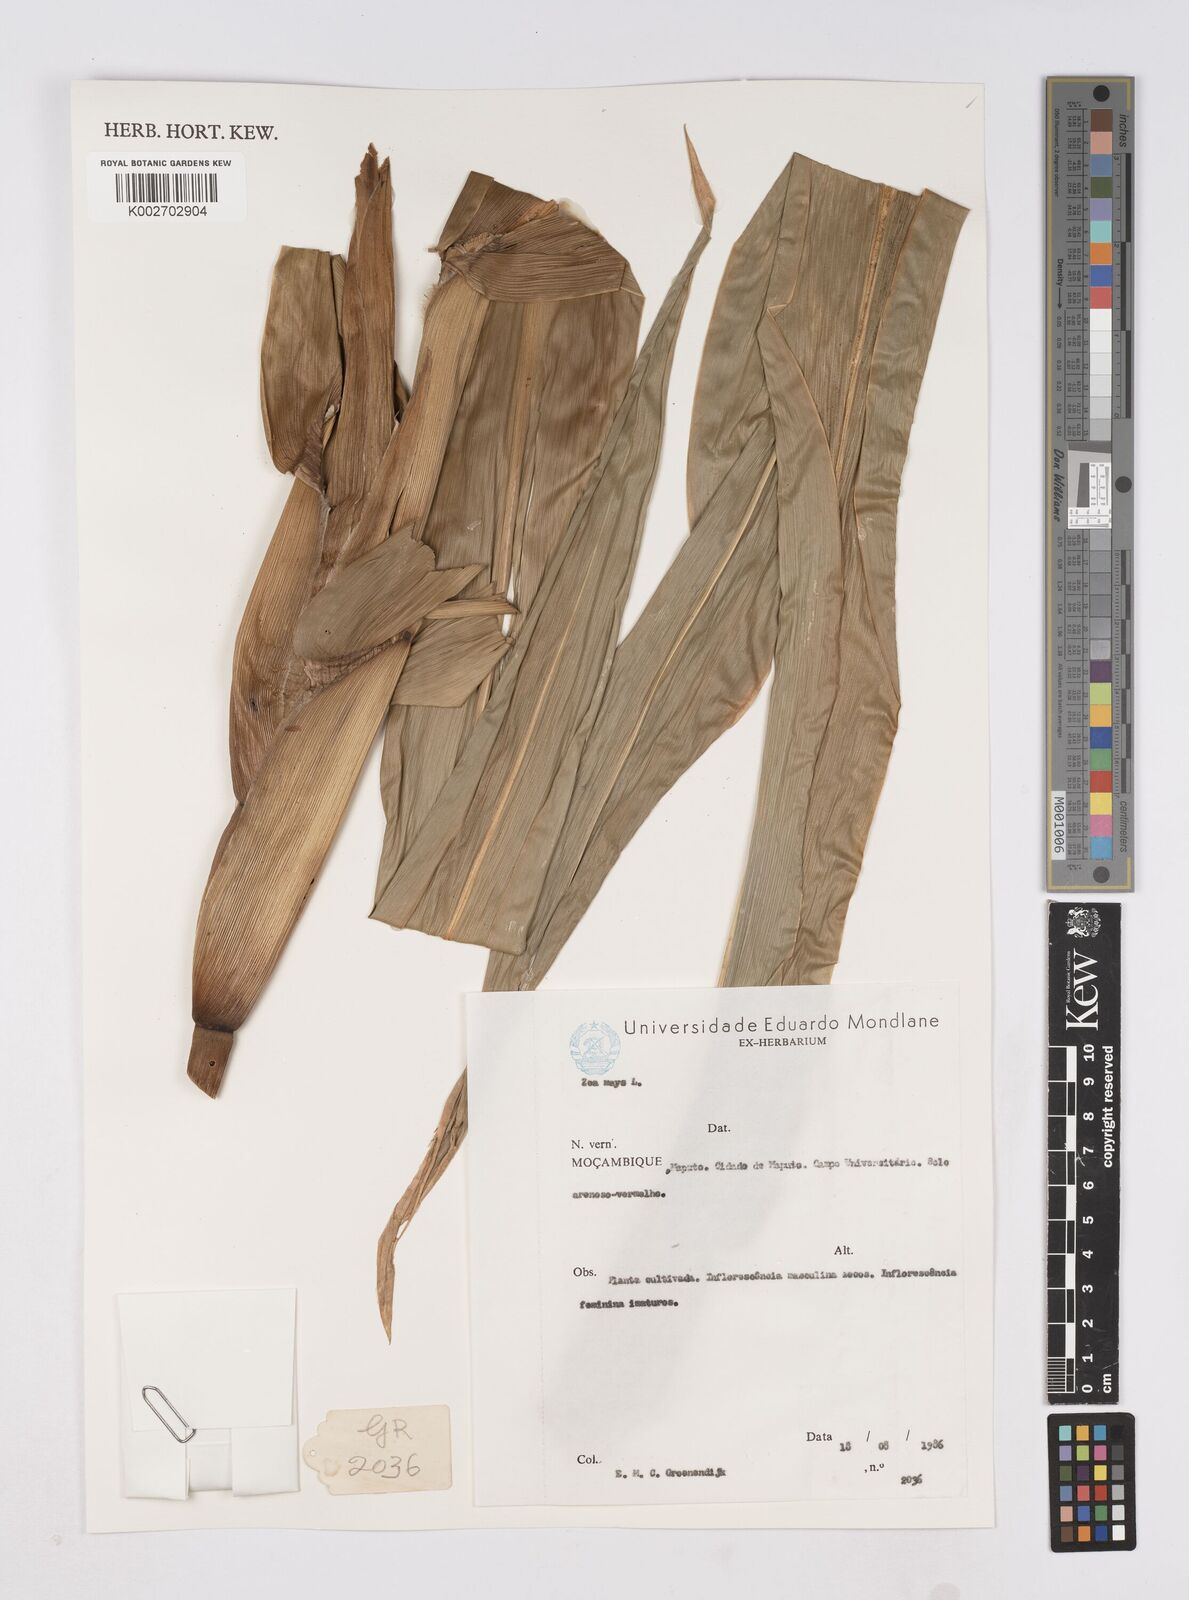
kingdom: Plantae
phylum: Tracheophyta
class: Liliopsida
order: Poales
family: Poaceae
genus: Zea
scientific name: Zea mays
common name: Maize
